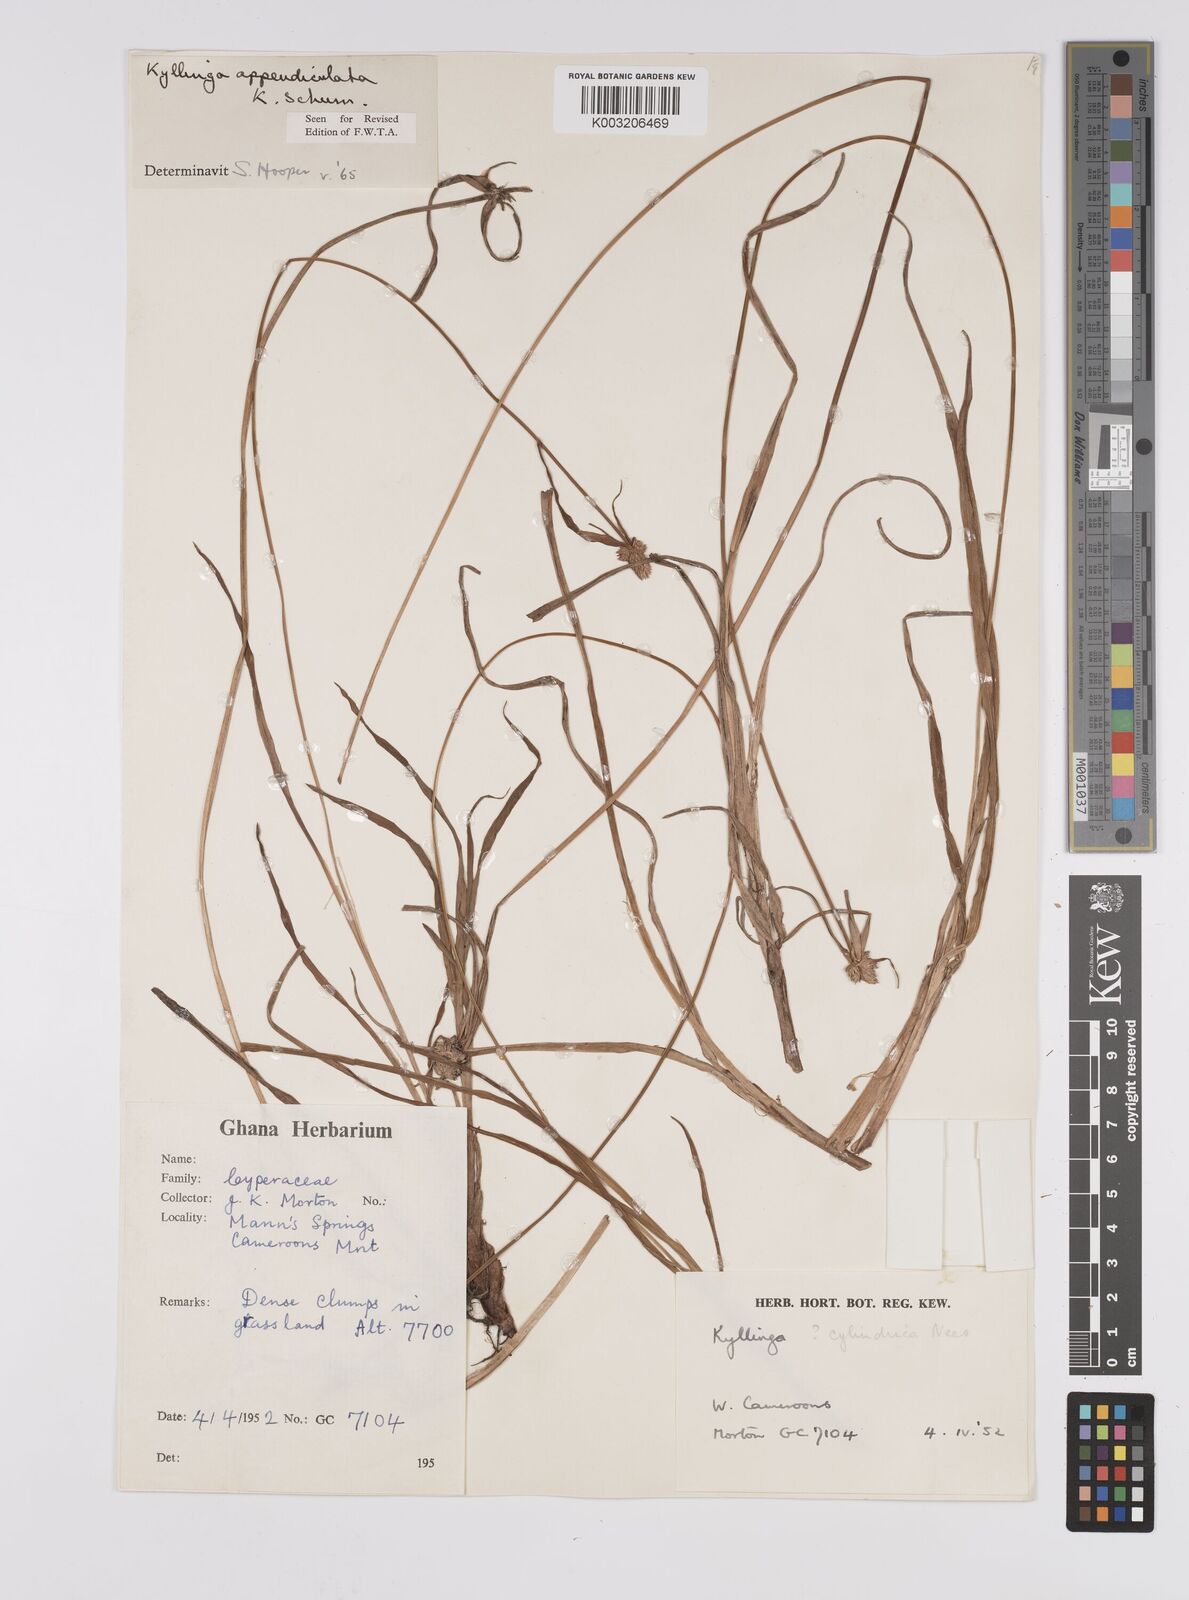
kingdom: Plantae
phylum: Tracheophyta
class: Liliopsida
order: Poales
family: Cyperaceae
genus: Cyperus
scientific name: Cyperus sesquiflorus
